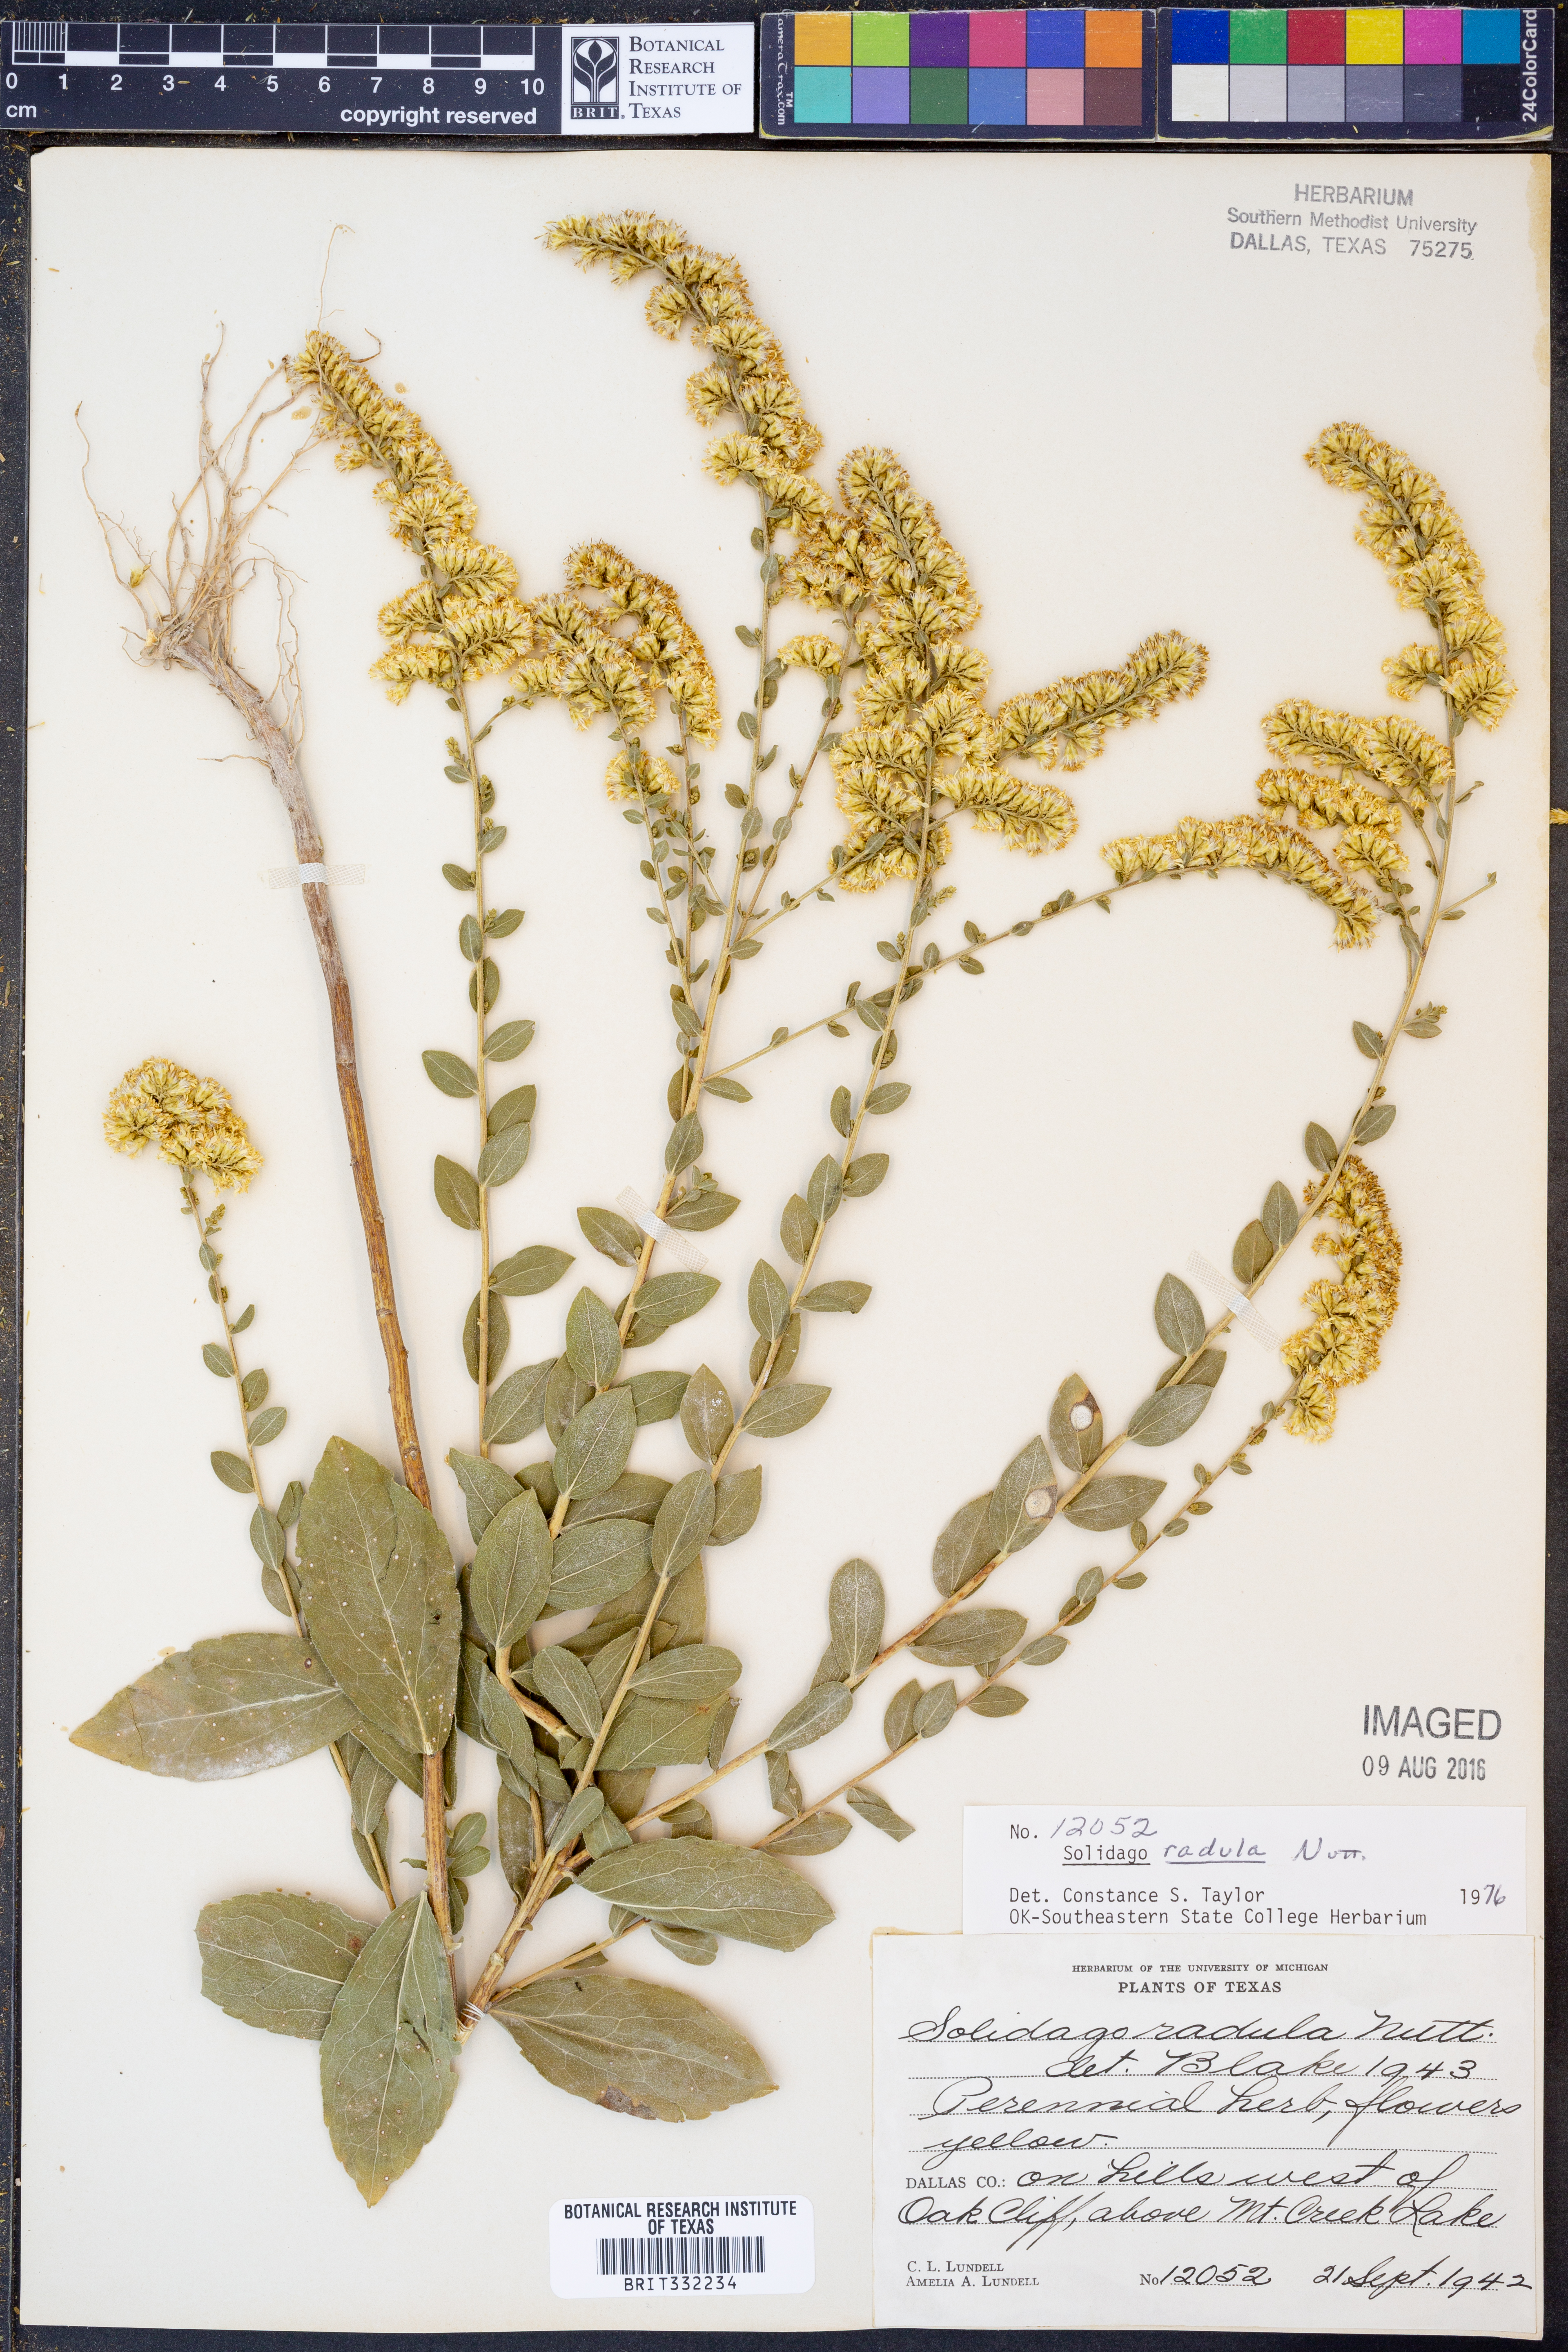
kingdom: Plantae
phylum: Tracheophyta
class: Magnoliopsida
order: Asterales
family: Asteraceae
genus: Solidago
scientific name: Solidago radula
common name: Western rough goldenrod
